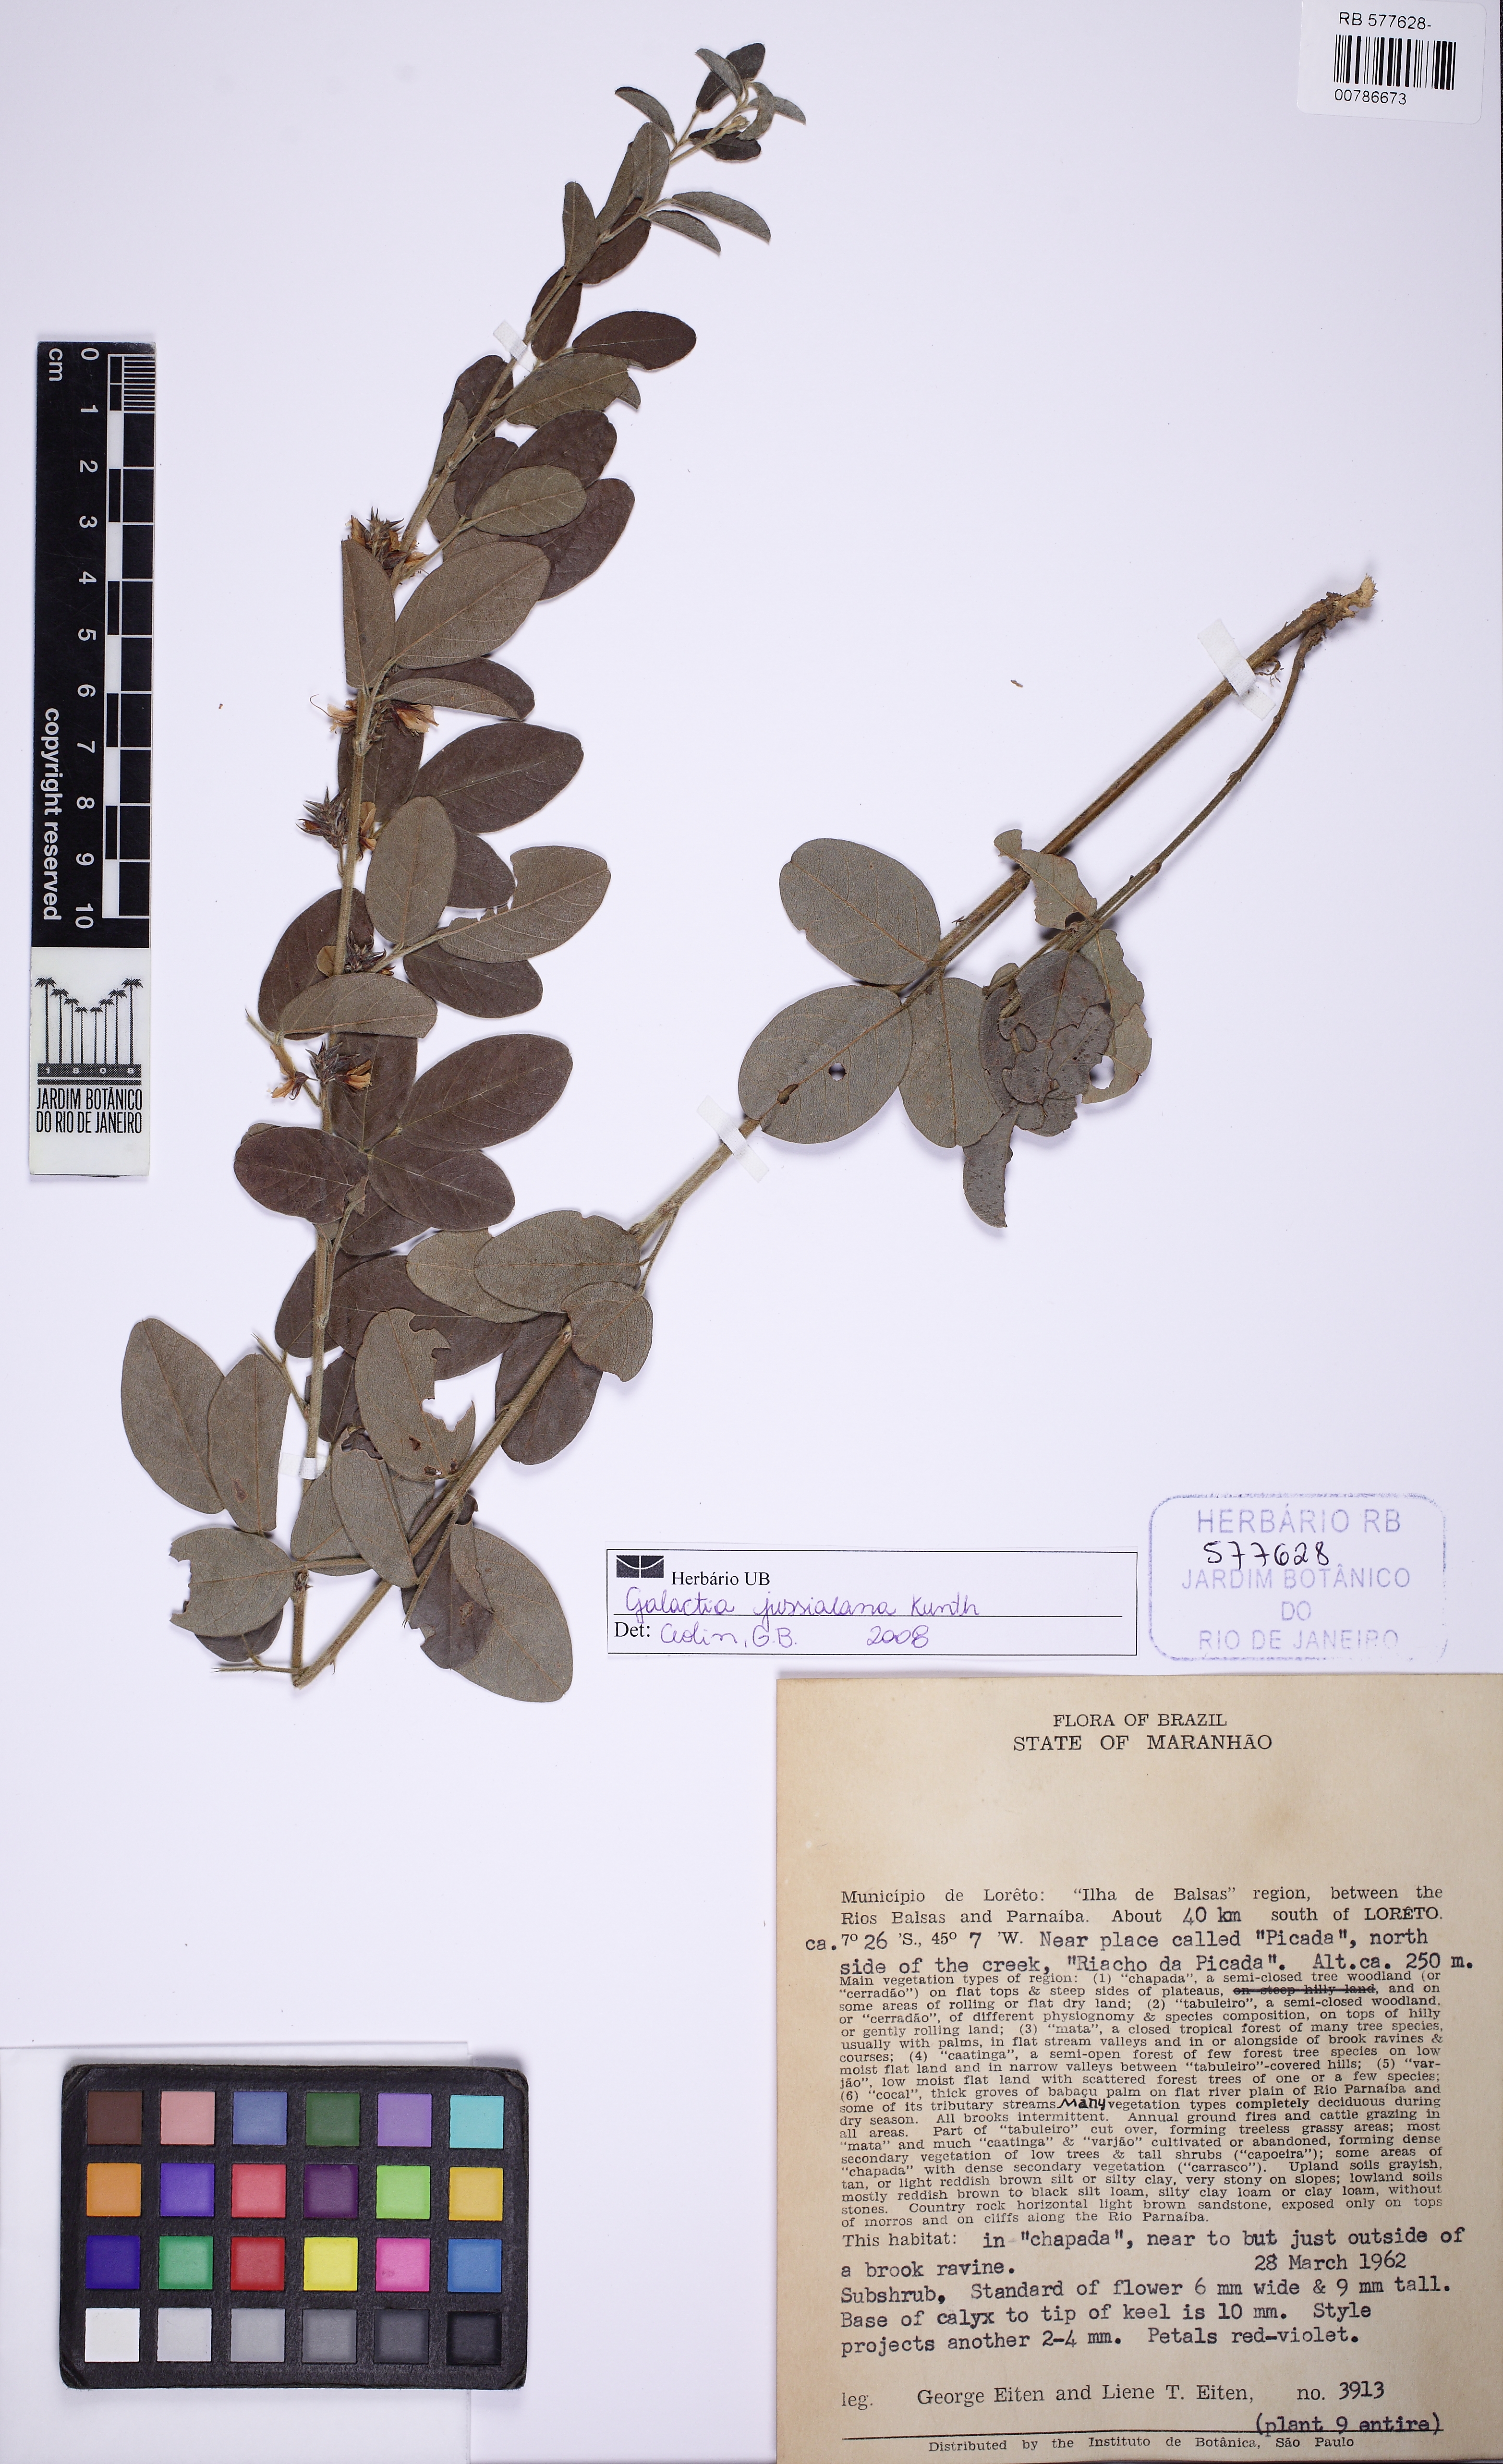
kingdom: Plantae
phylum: Tracheophyta
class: Magnoliopsida
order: Fabales
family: Fabaceae
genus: Galactia
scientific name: Galactia jussiaeana
